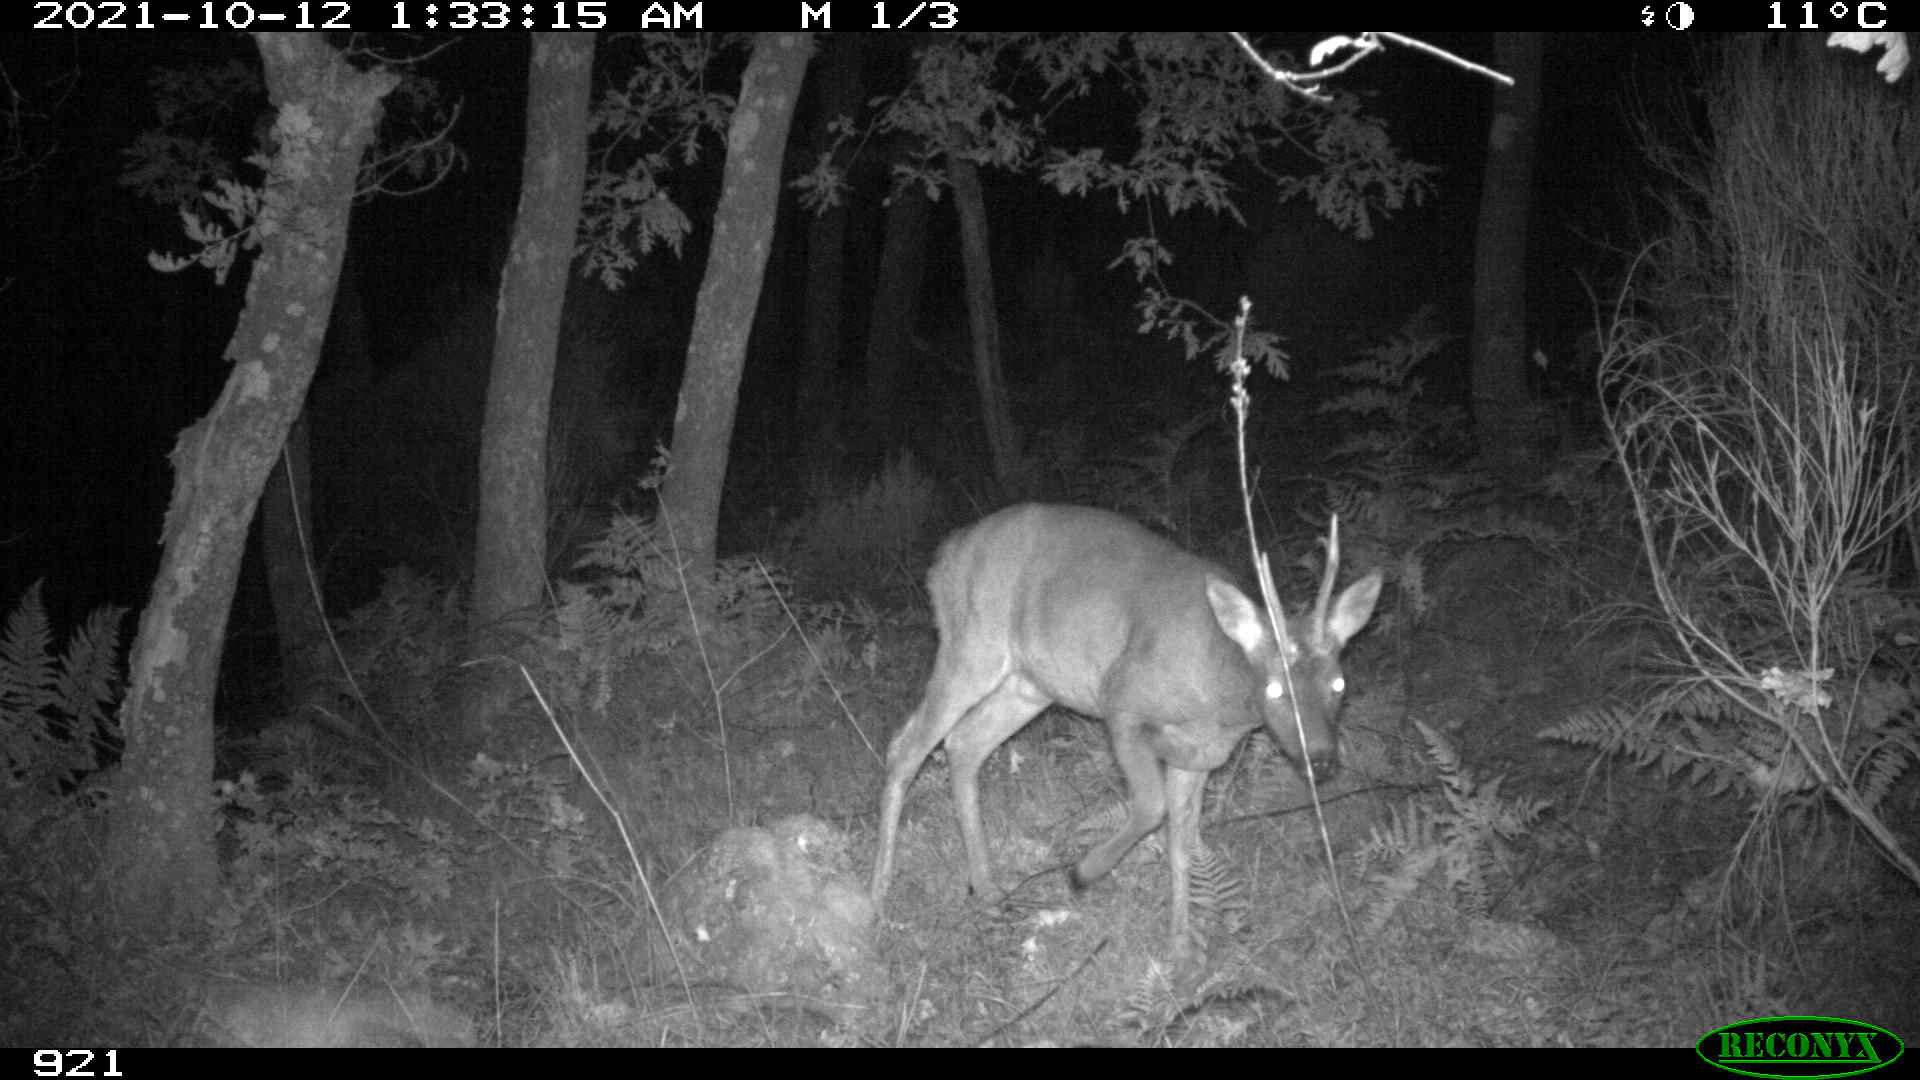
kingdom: Animalia
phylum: Chordata
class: Mammalia
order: Artiodactyla
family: Cervidae
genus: Capreolus
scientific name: Capreolus capreolus
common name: Western roe deer
